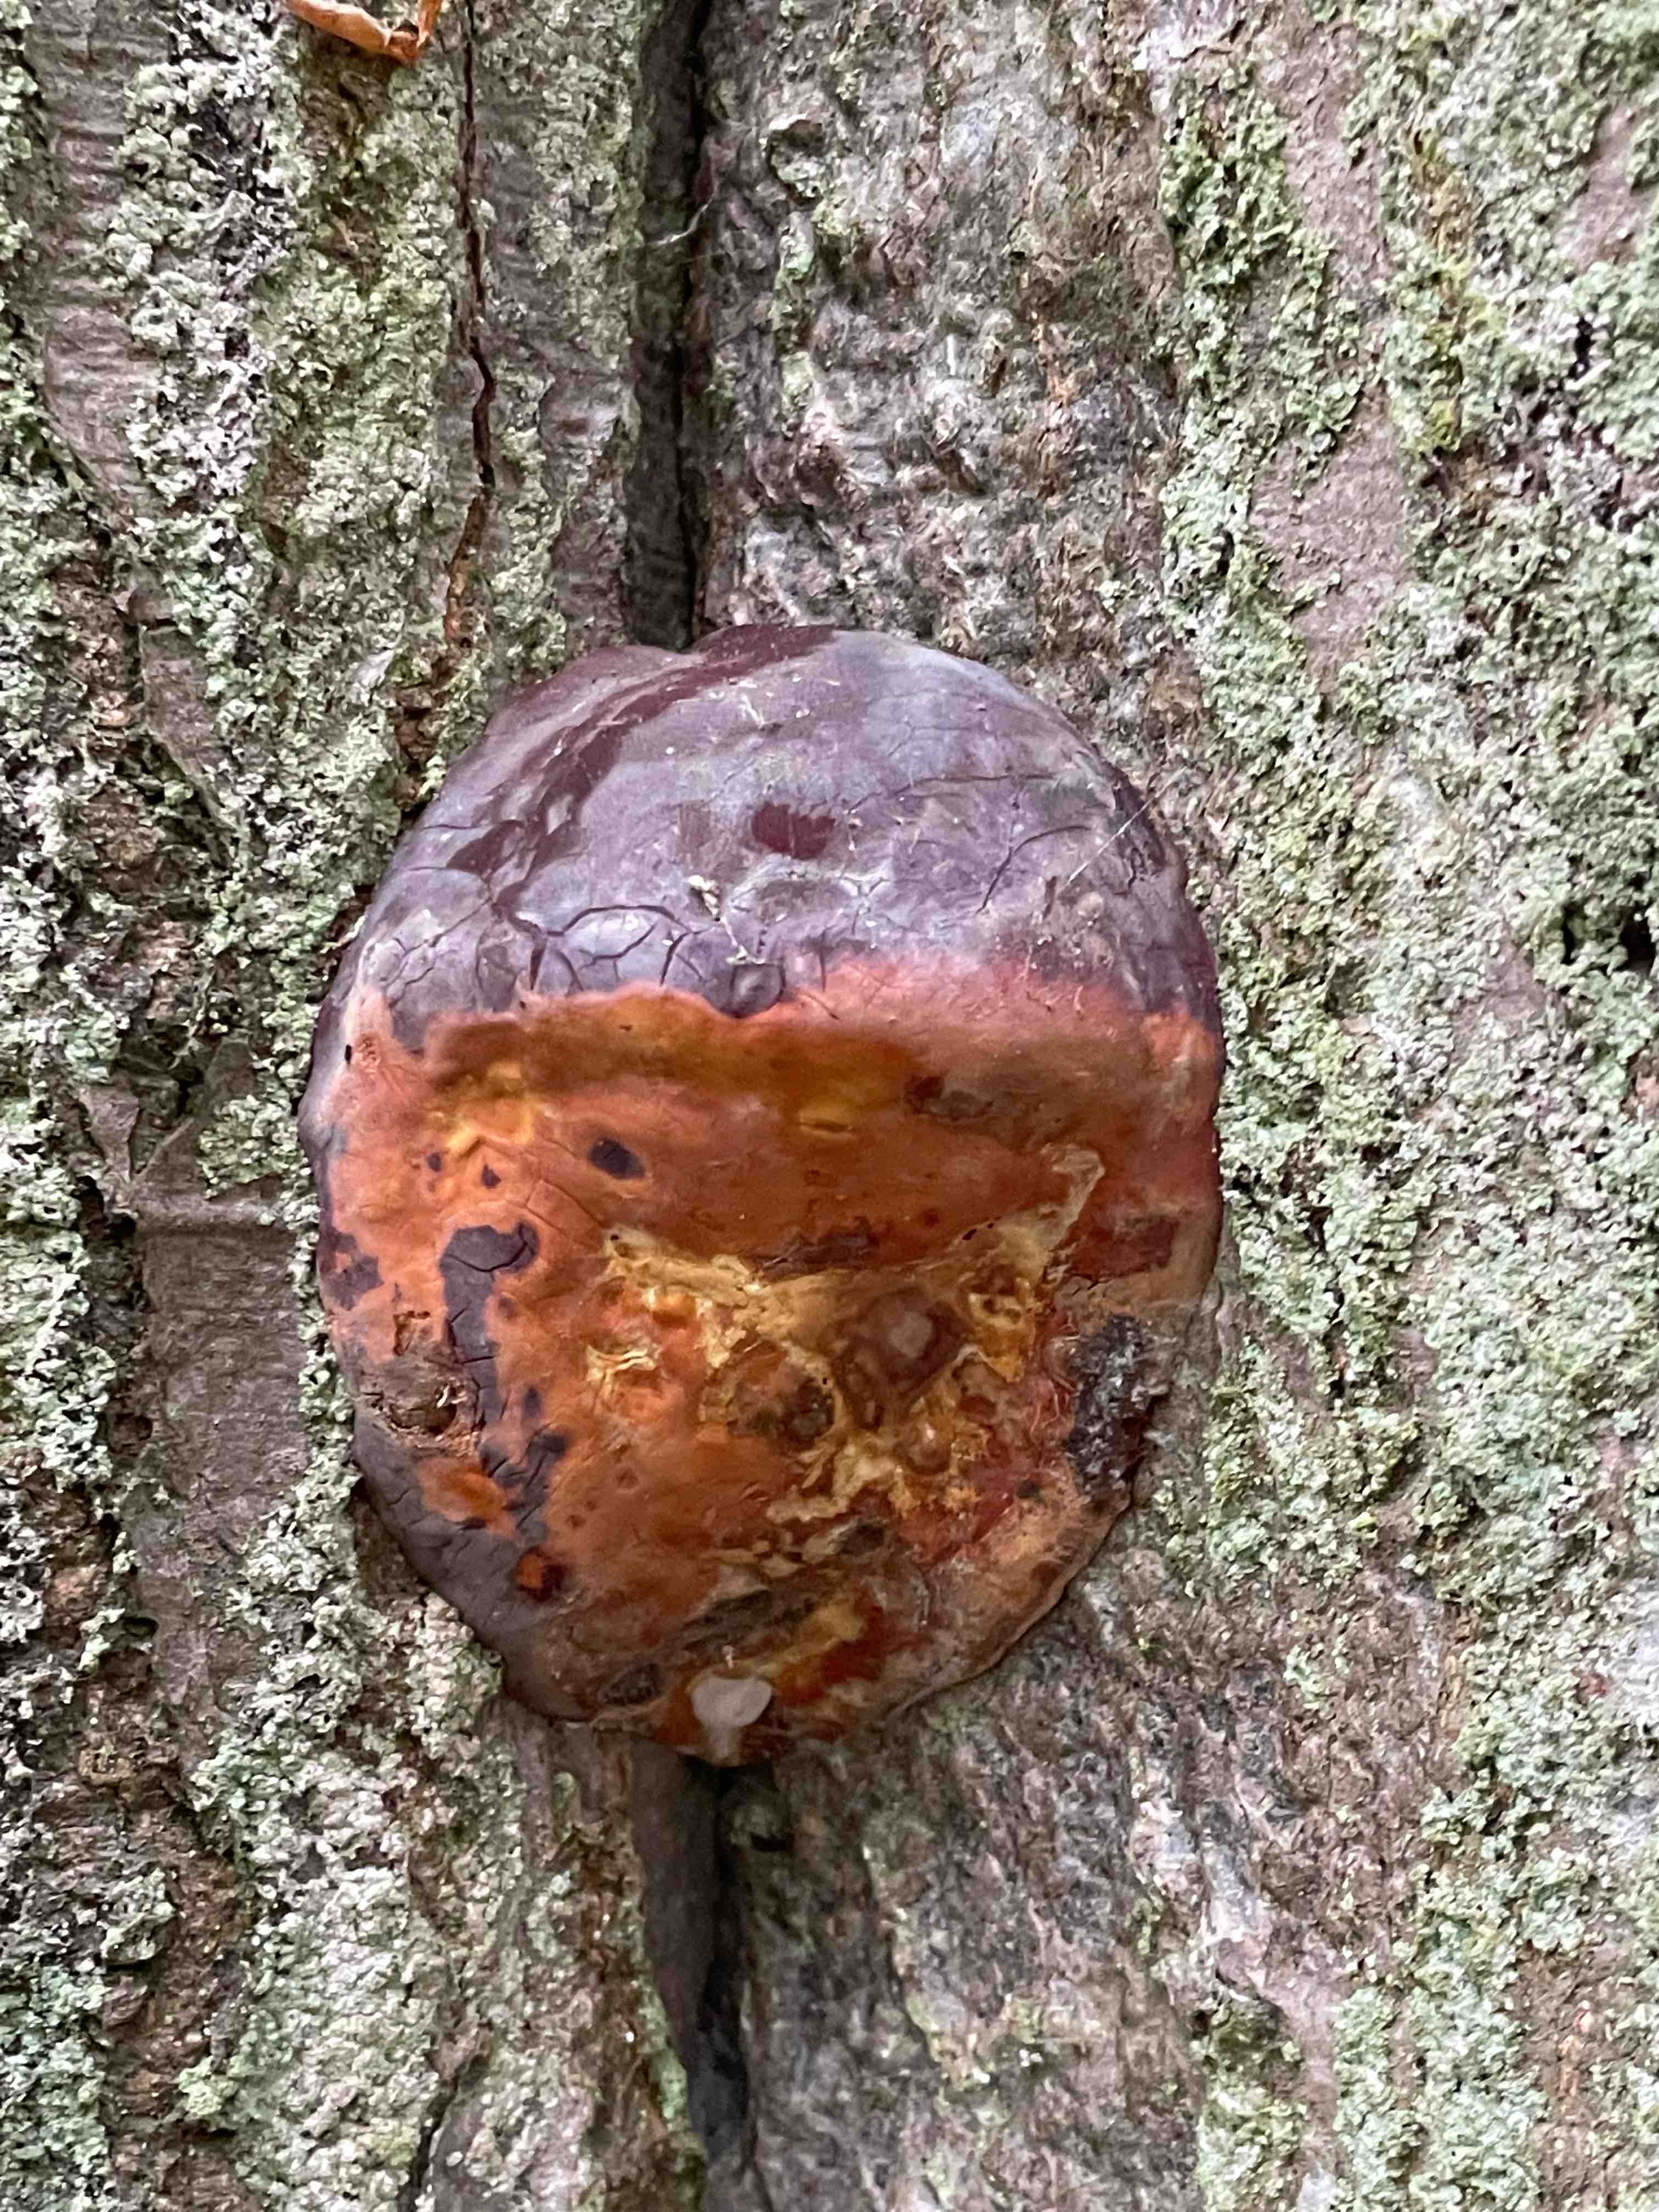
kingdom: Fungi
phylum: Basidiomycota
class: Agaricomycetes
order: Polyporales
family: Polyporaceae
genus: Ganoderma
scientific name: Ganoderma pfeifferi
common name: kobberrød lakporesvamp
